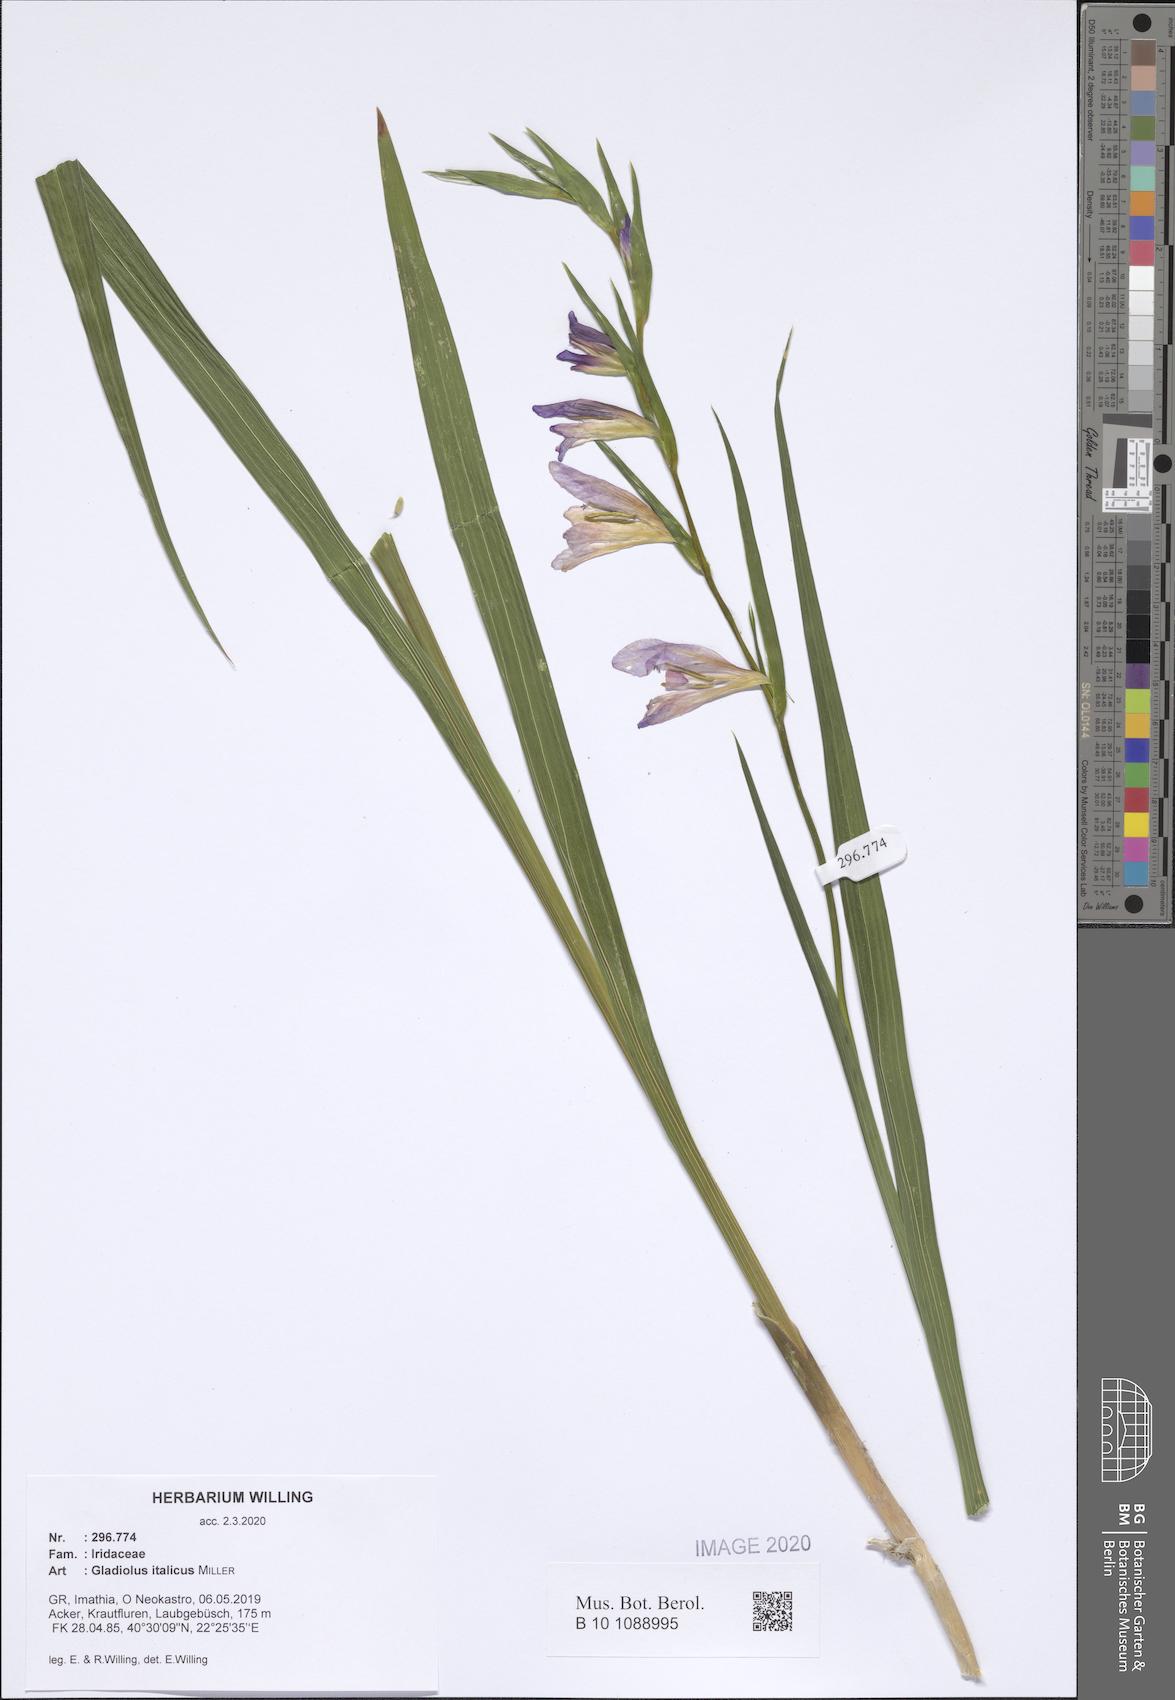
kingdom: Plantae
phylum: Tracheophyta
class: Liliopsida
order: Asparagales
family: Iridaceae
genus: Gladiolus
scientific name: Gladiolus italicus
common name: Field gladiolus
